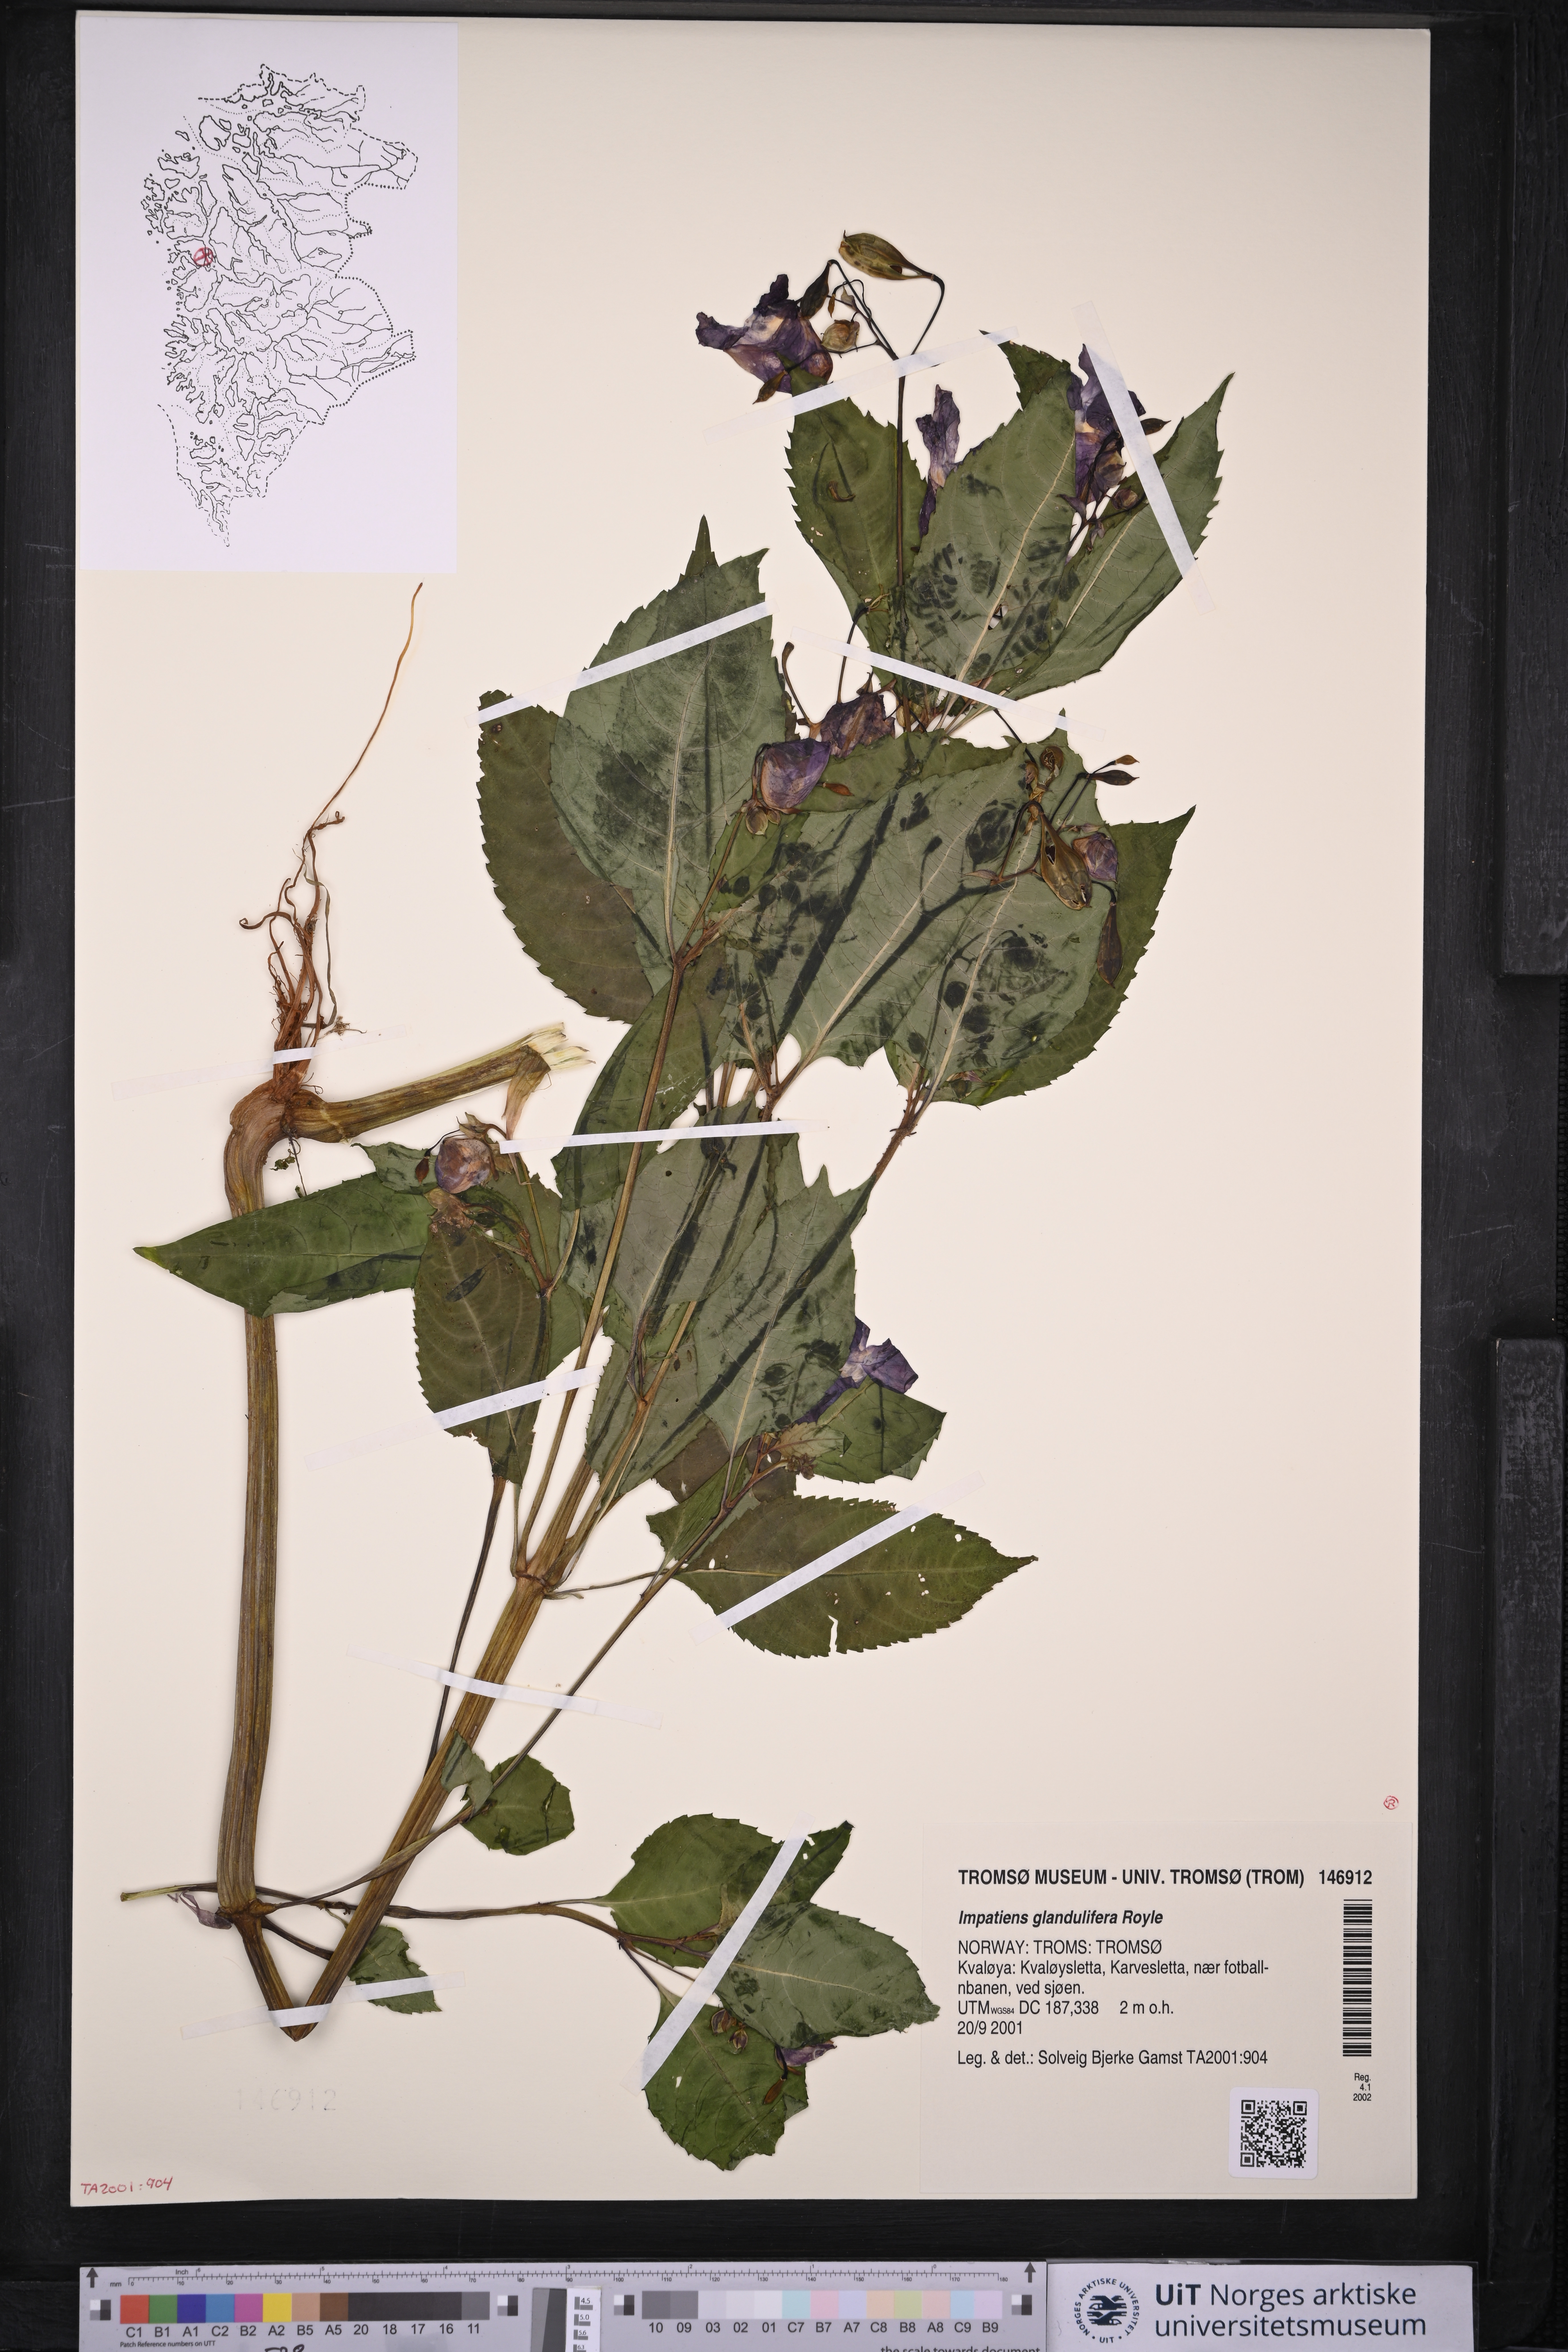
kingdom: Plantae
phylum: Tracheophyta
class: Magnoliopsida
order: Ericales
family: Balsaminaceae
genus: Impatiens
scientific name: Impatiens glandulifera
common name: Himalayan balsam
